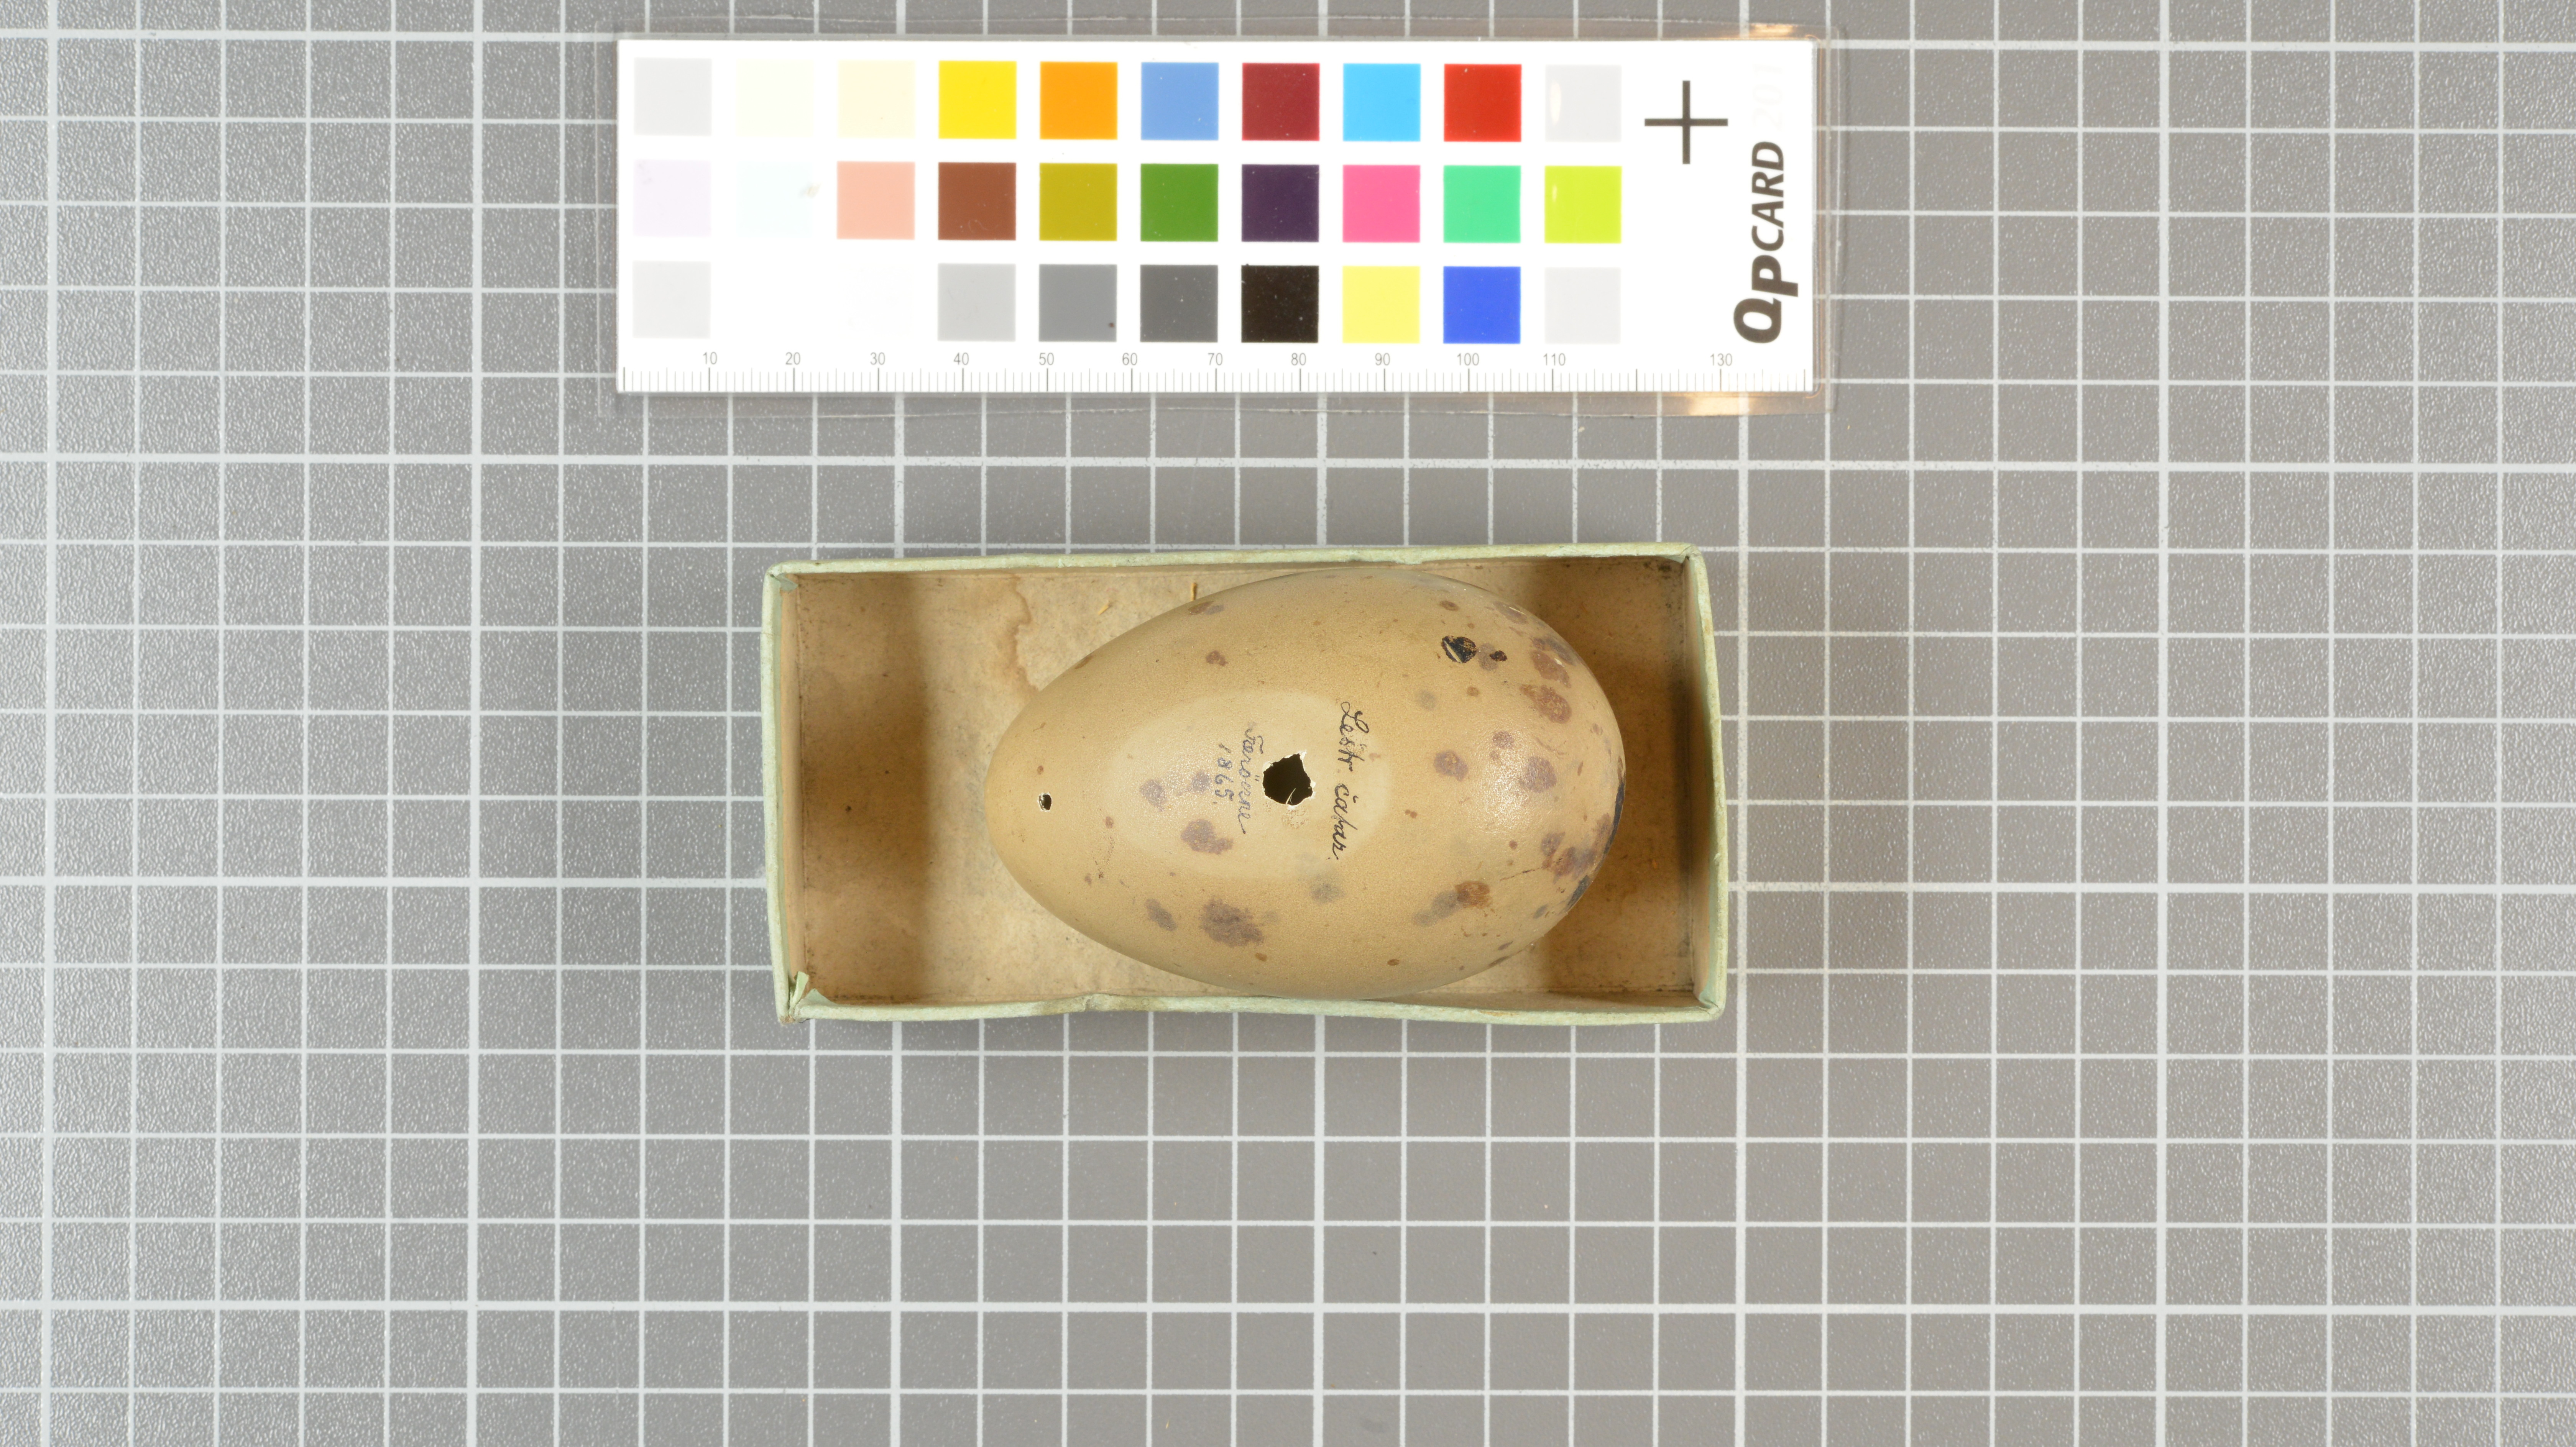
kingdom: Animalia
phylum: Chordata
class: Aves
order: Charadriiformes
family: Stercorariidae
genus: Stercorarius
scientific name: Stercorarius skua
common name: Great skua
